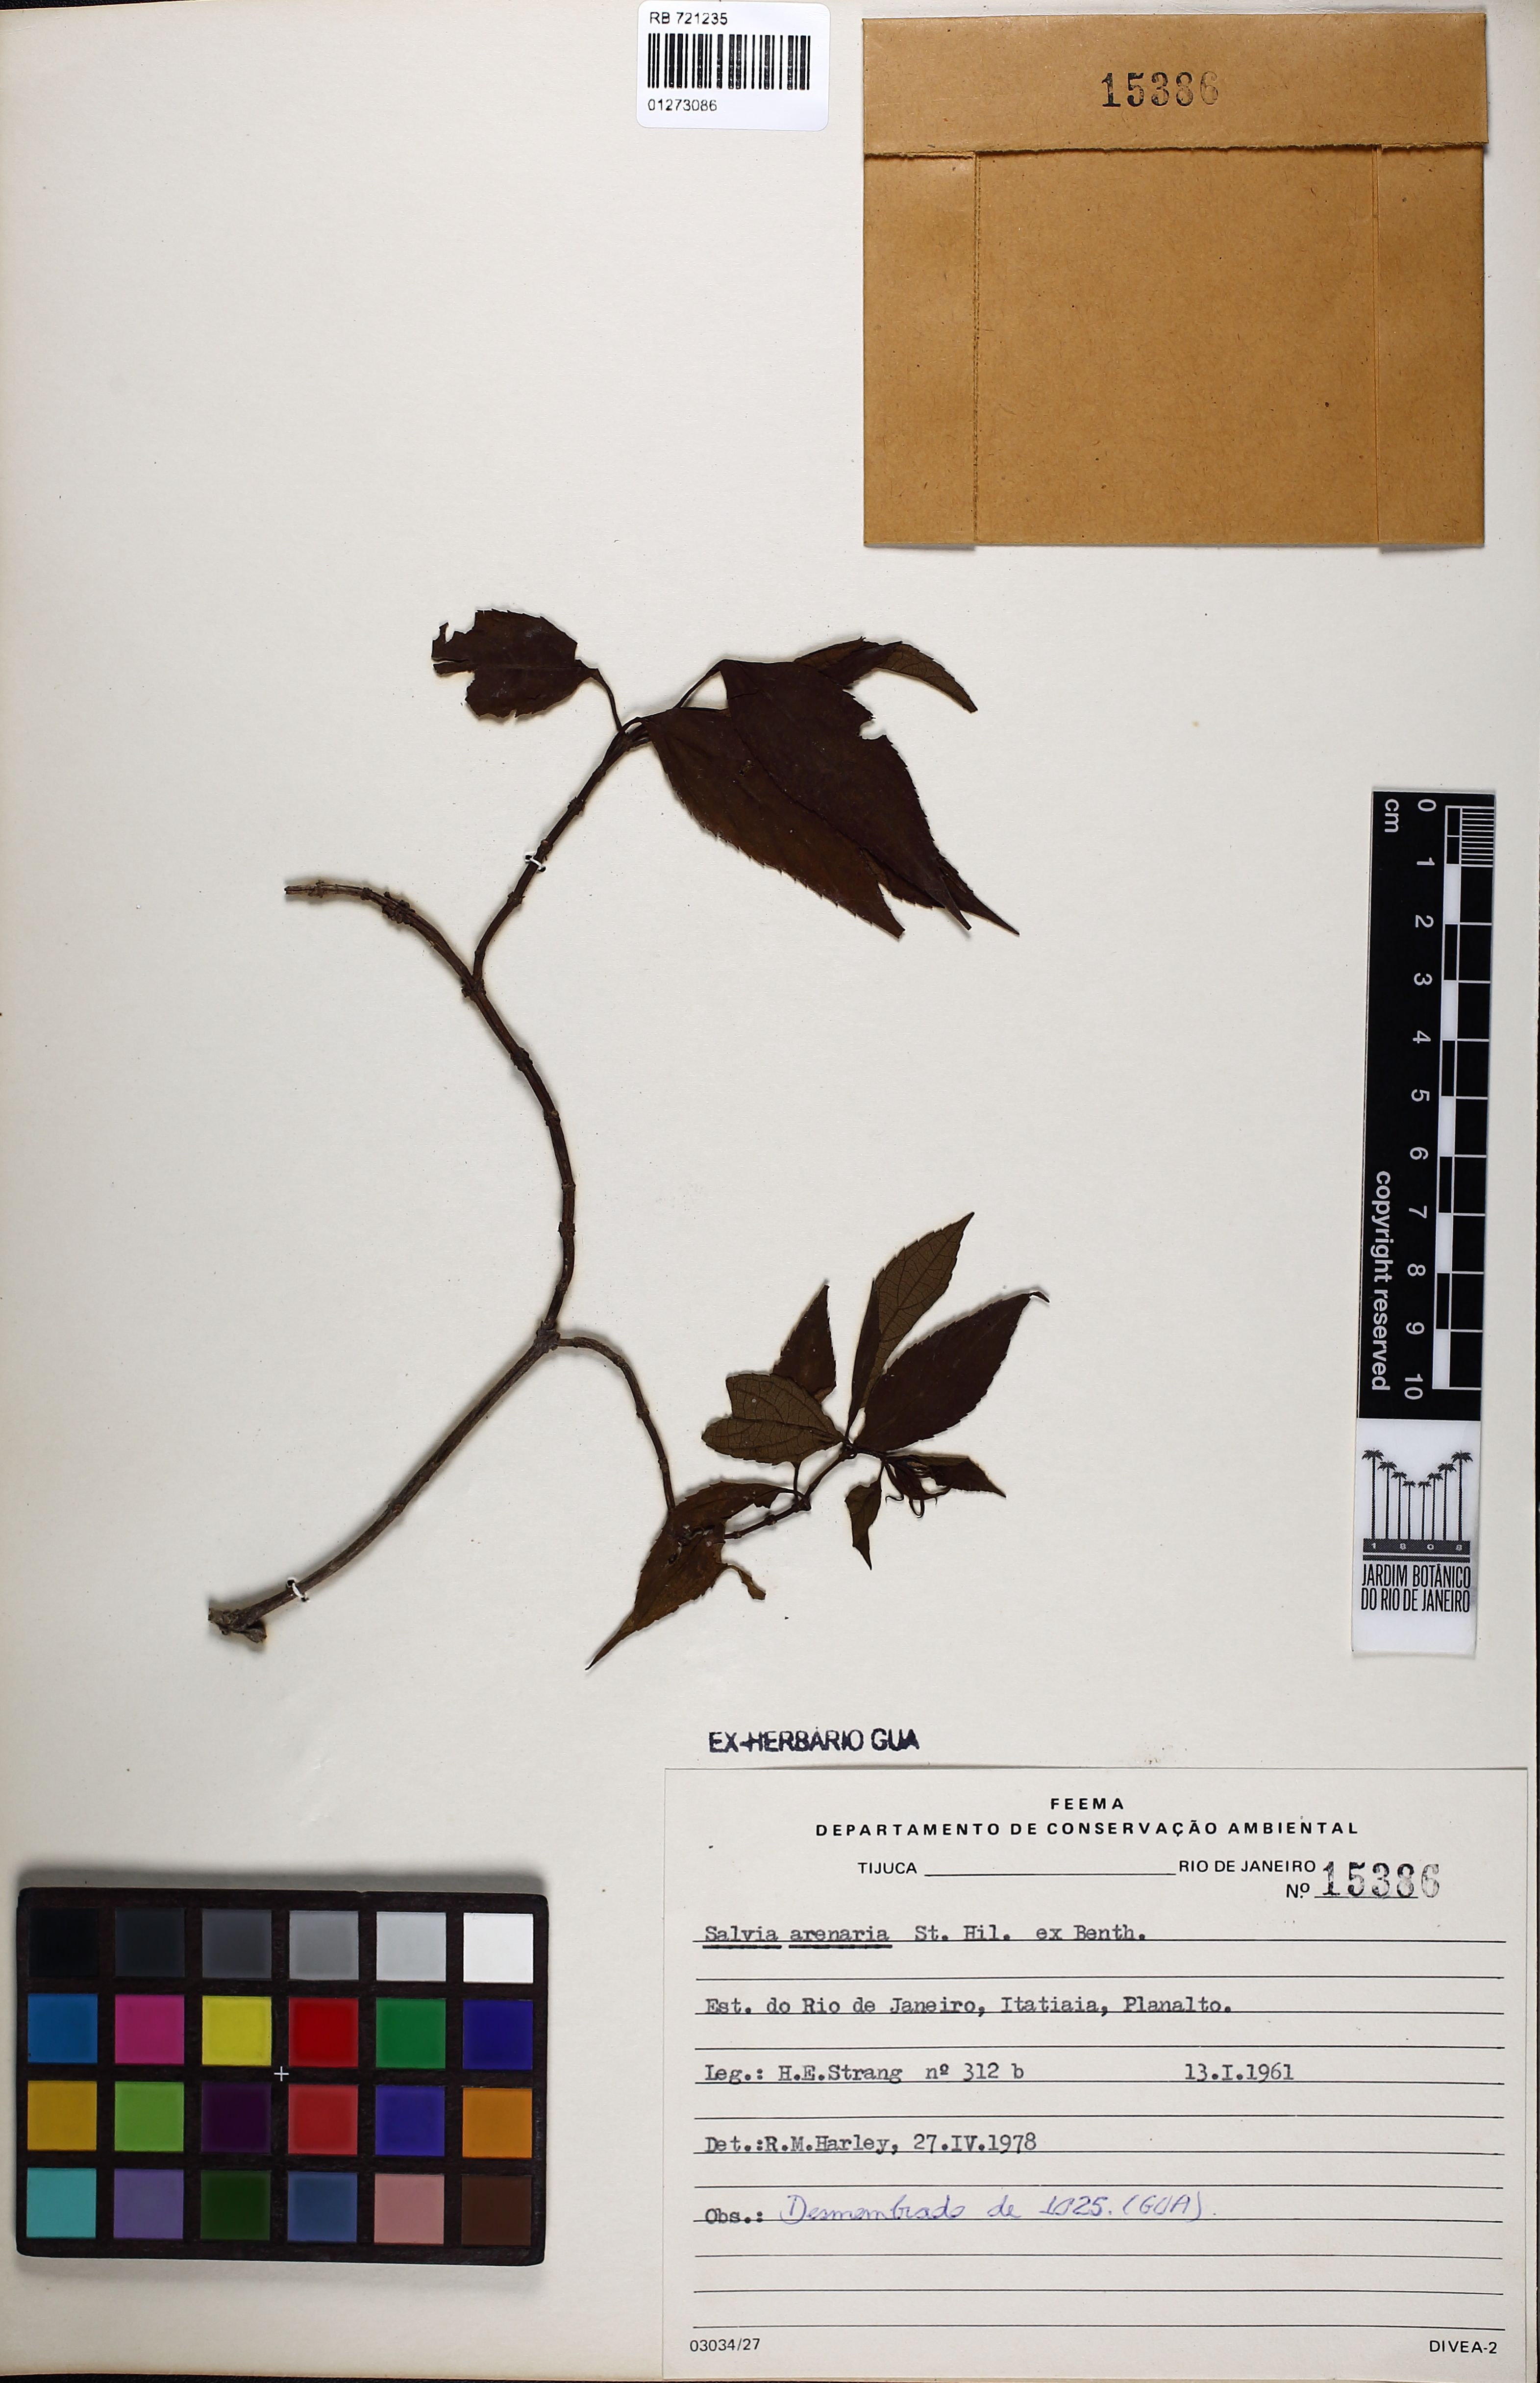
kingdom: Plantae
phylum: Tracheophyta
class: Magnoliopsida
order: Lamiales
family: Lamiaceae
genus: Salvia
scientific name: Salvia arenaria
